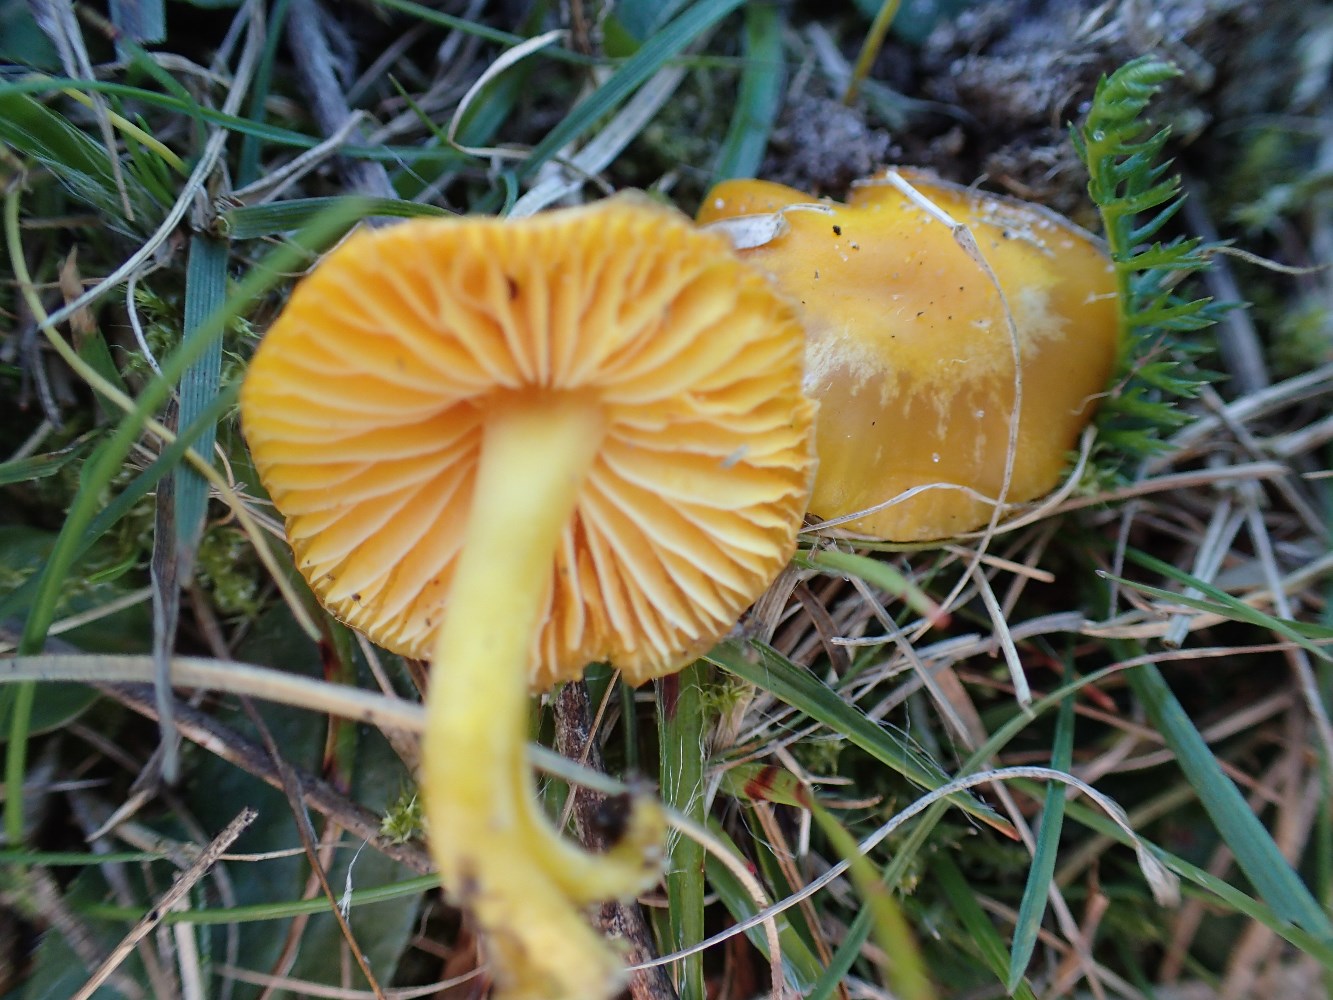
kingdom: Fungi
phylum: Basidiomycota
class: Agaricomycetes
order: Agaricales
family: Hygrophoraceae
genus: Hygrocybe
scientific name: Hygrocybe chlorophana
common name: gul vokshat
